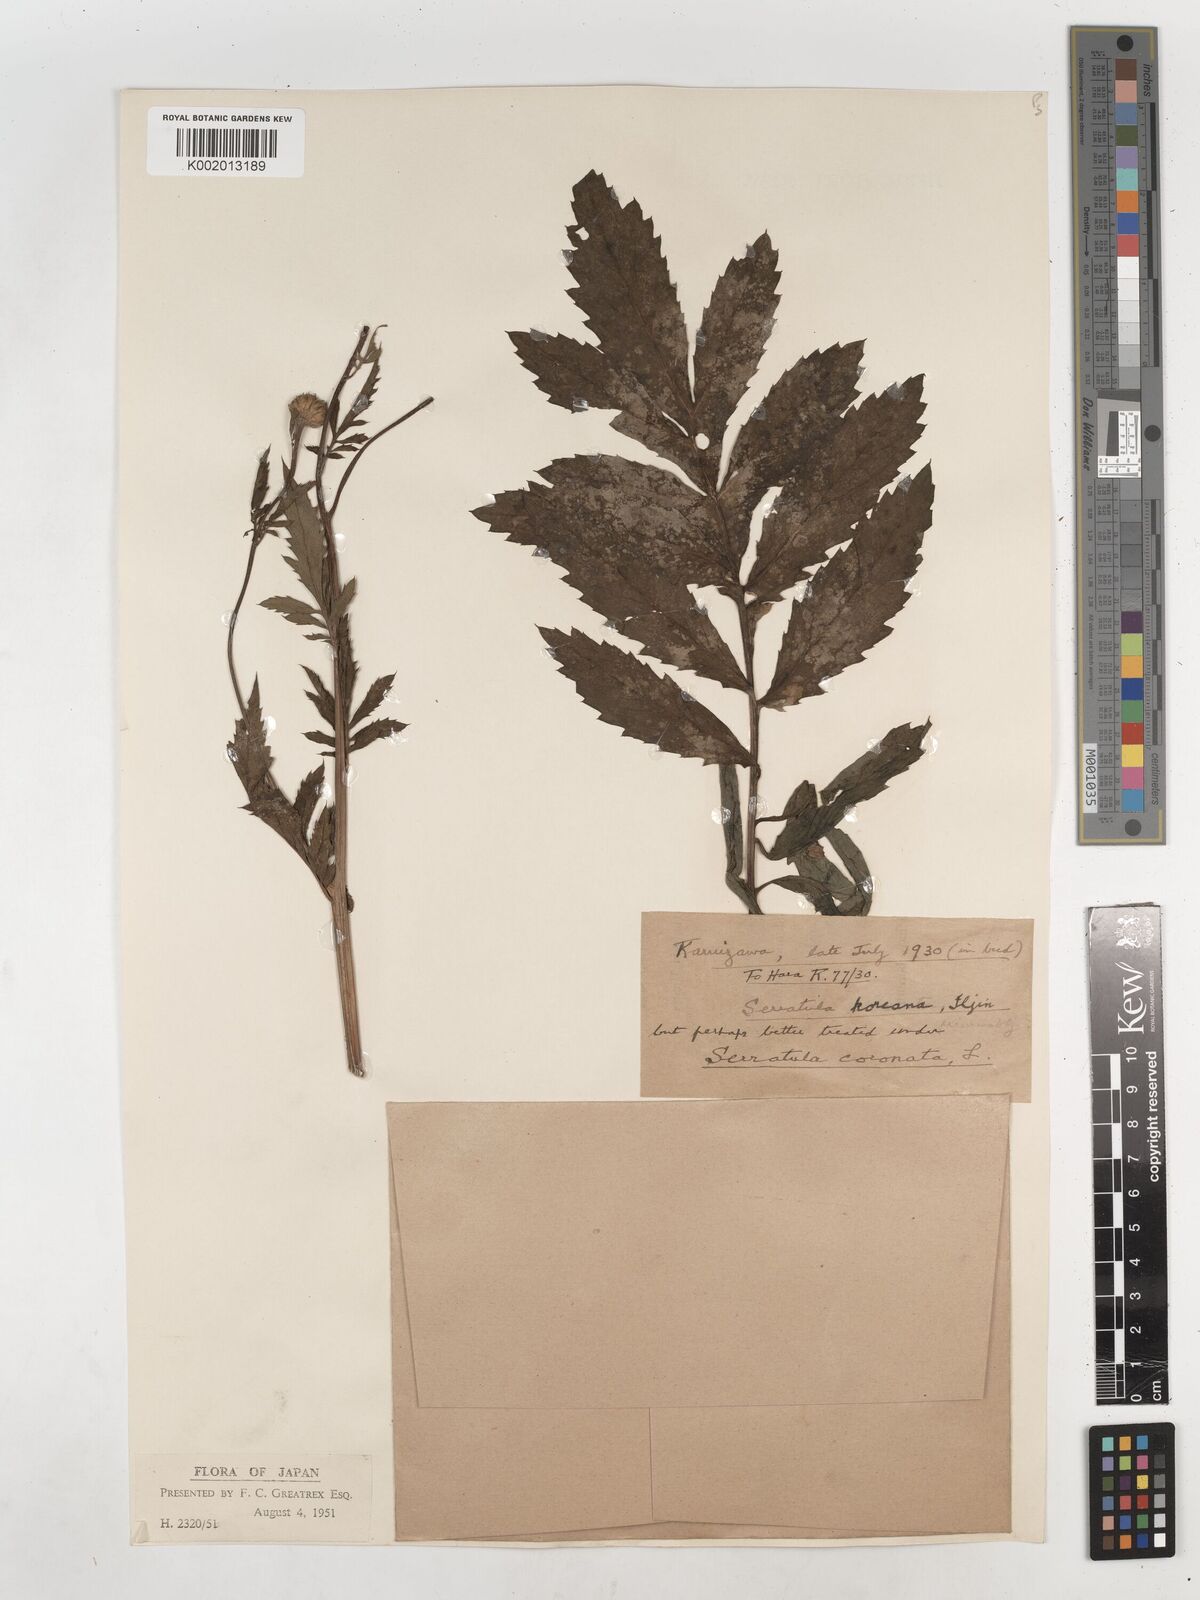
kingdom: Plantae
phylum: Tracheophyta
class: Magnoliopsida
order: Asterales
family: Asteraceae
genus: Serratula
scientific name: Serratula coronata
